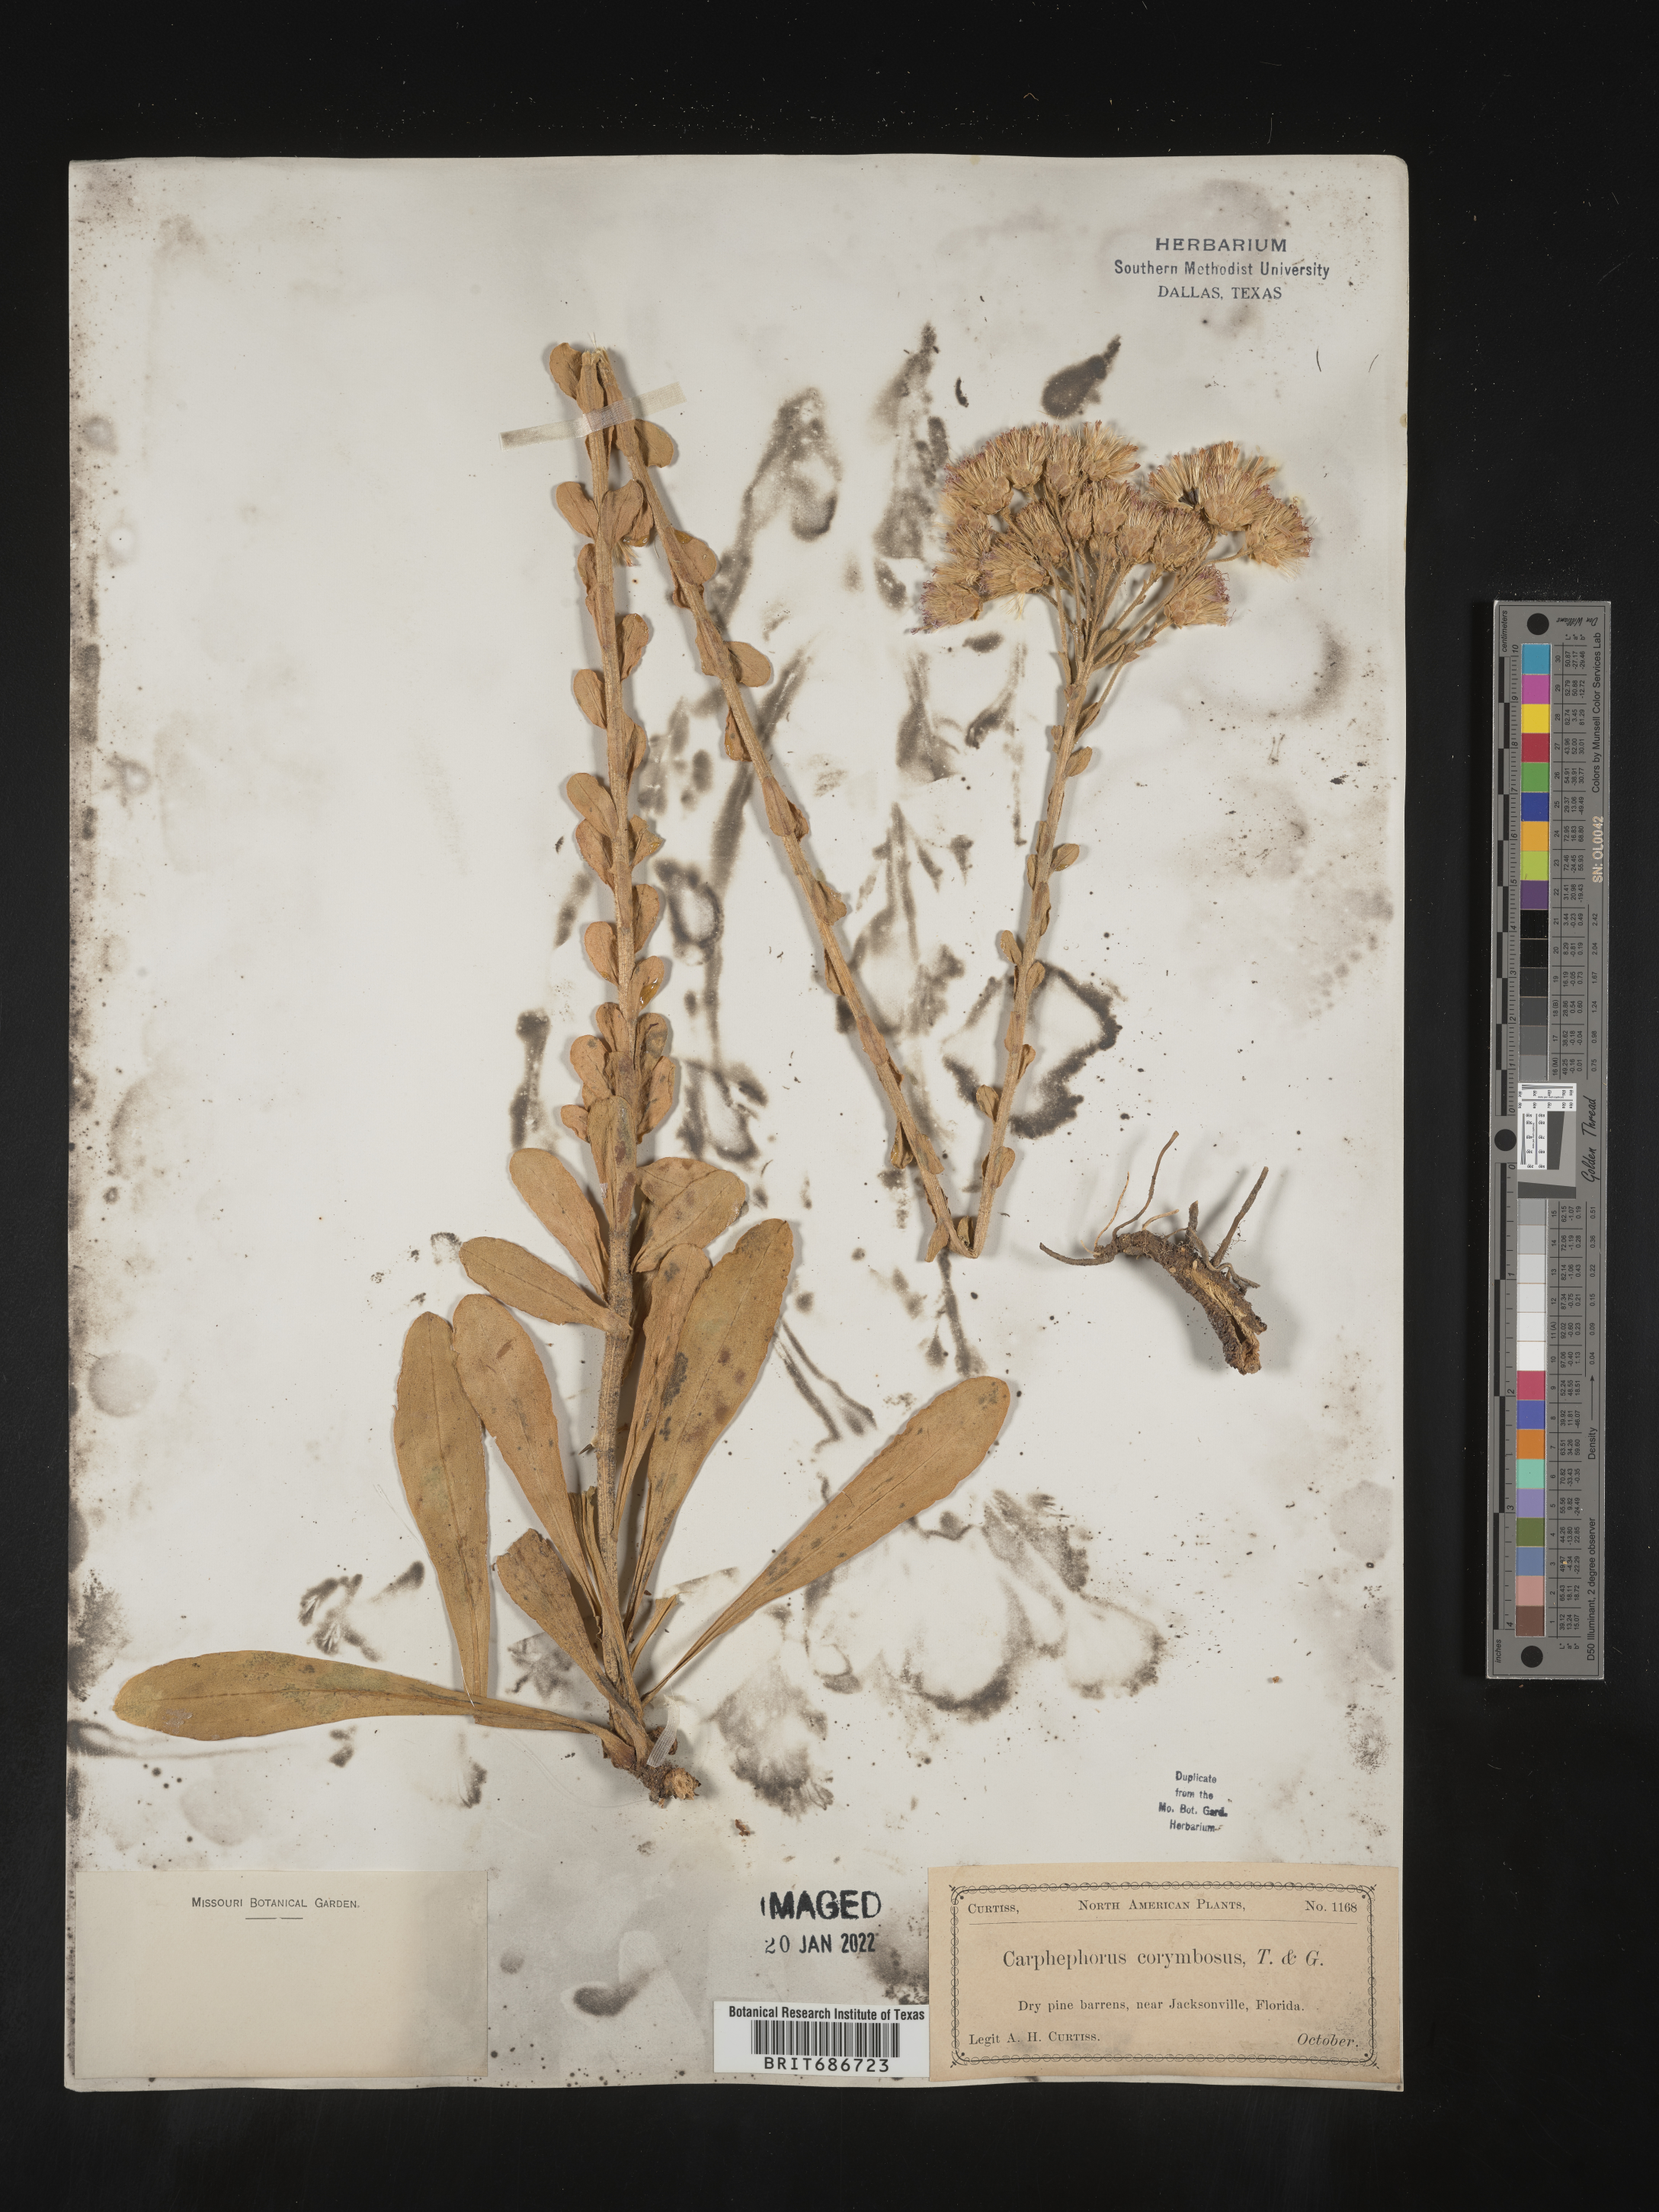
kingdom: Plantae
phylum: Tracheophyta
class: Magnoliopsida
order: Asterales
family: Asteraceae
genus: Carphephorus
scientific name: Carphephorus corymbosus
